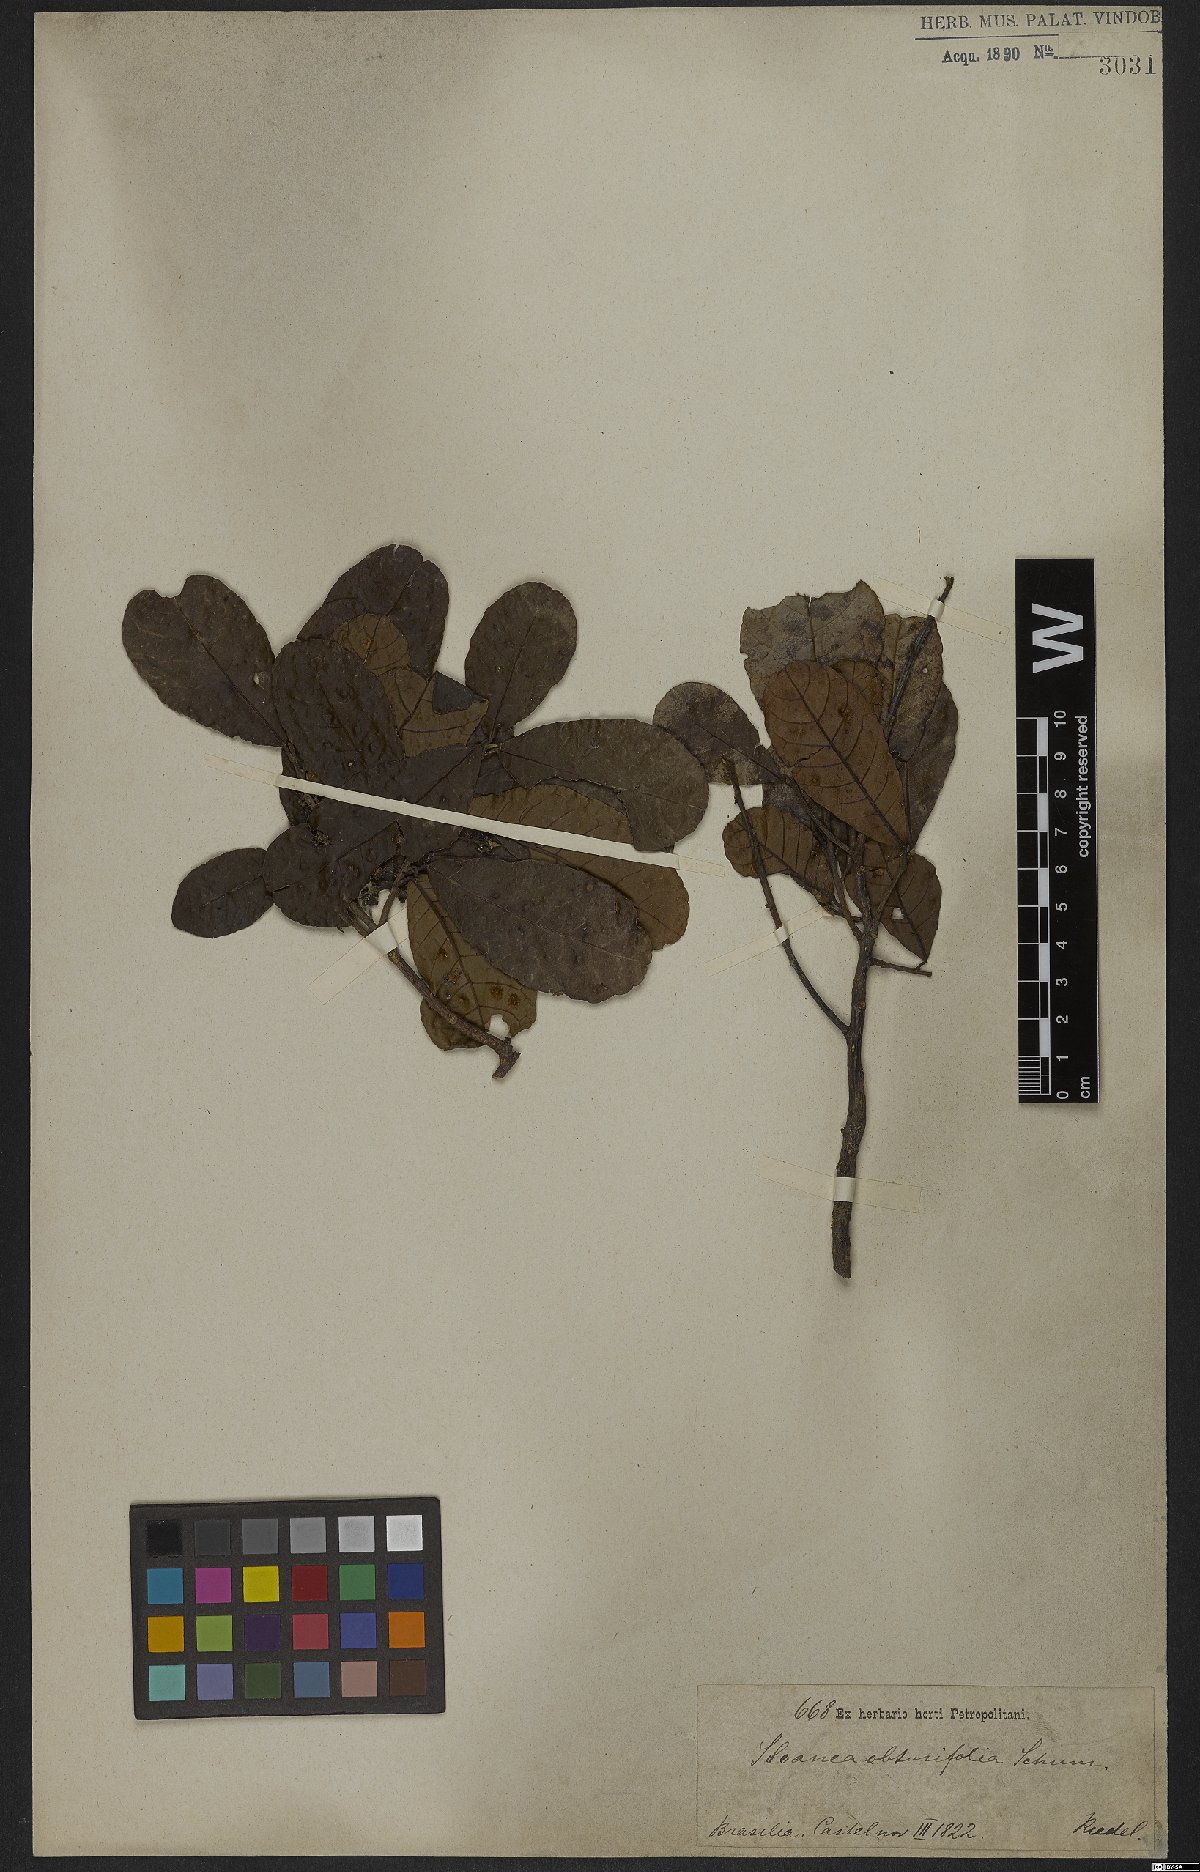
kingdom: Plantae
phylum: Tracheophyta
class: Magnoliopsida
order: Oxalidales
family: Elaeocarpaceae
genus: Sloanea
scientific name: Sloanea obtusifolia
